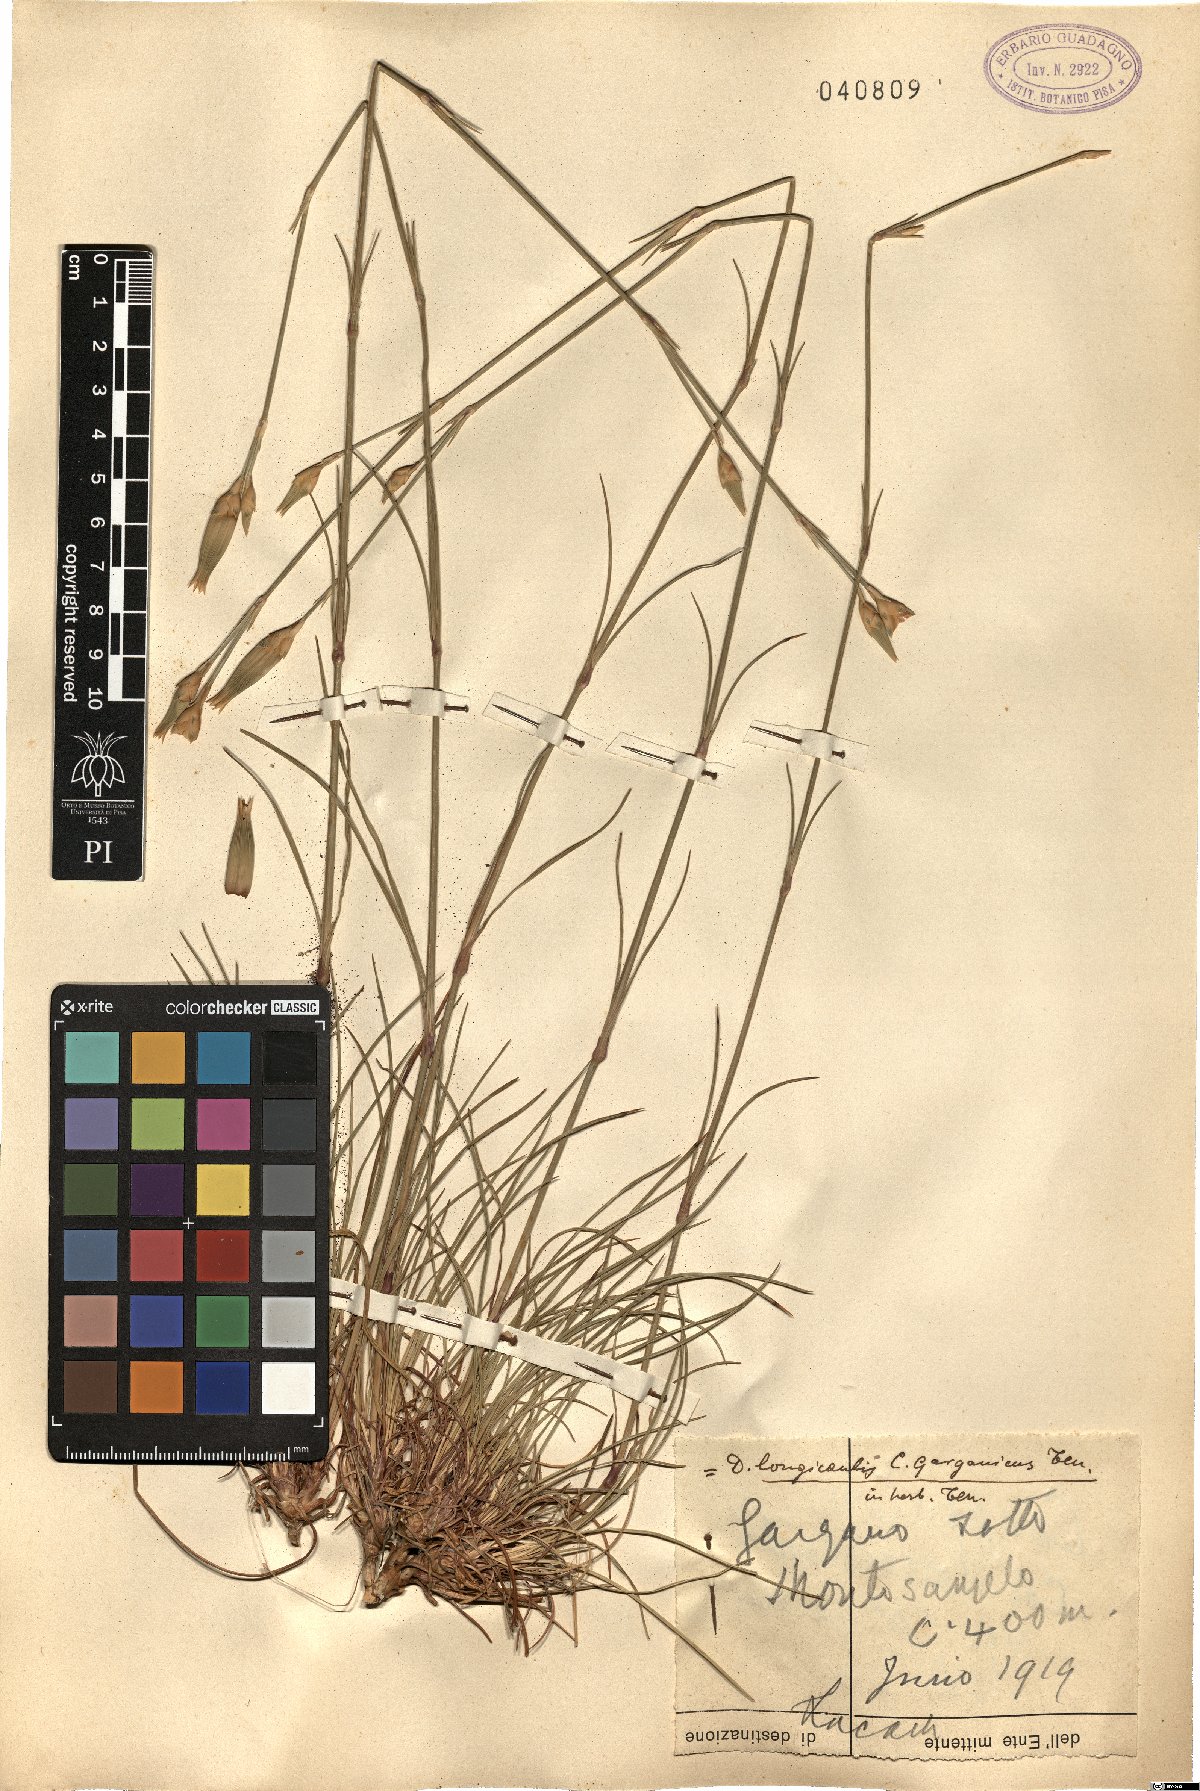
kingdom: Plantae
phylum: Tracheophyta
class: Magnoliopsida
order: Caryophyllales
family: Caryophyllaceae
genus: Dianthus
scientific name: Dianthus virgineus
